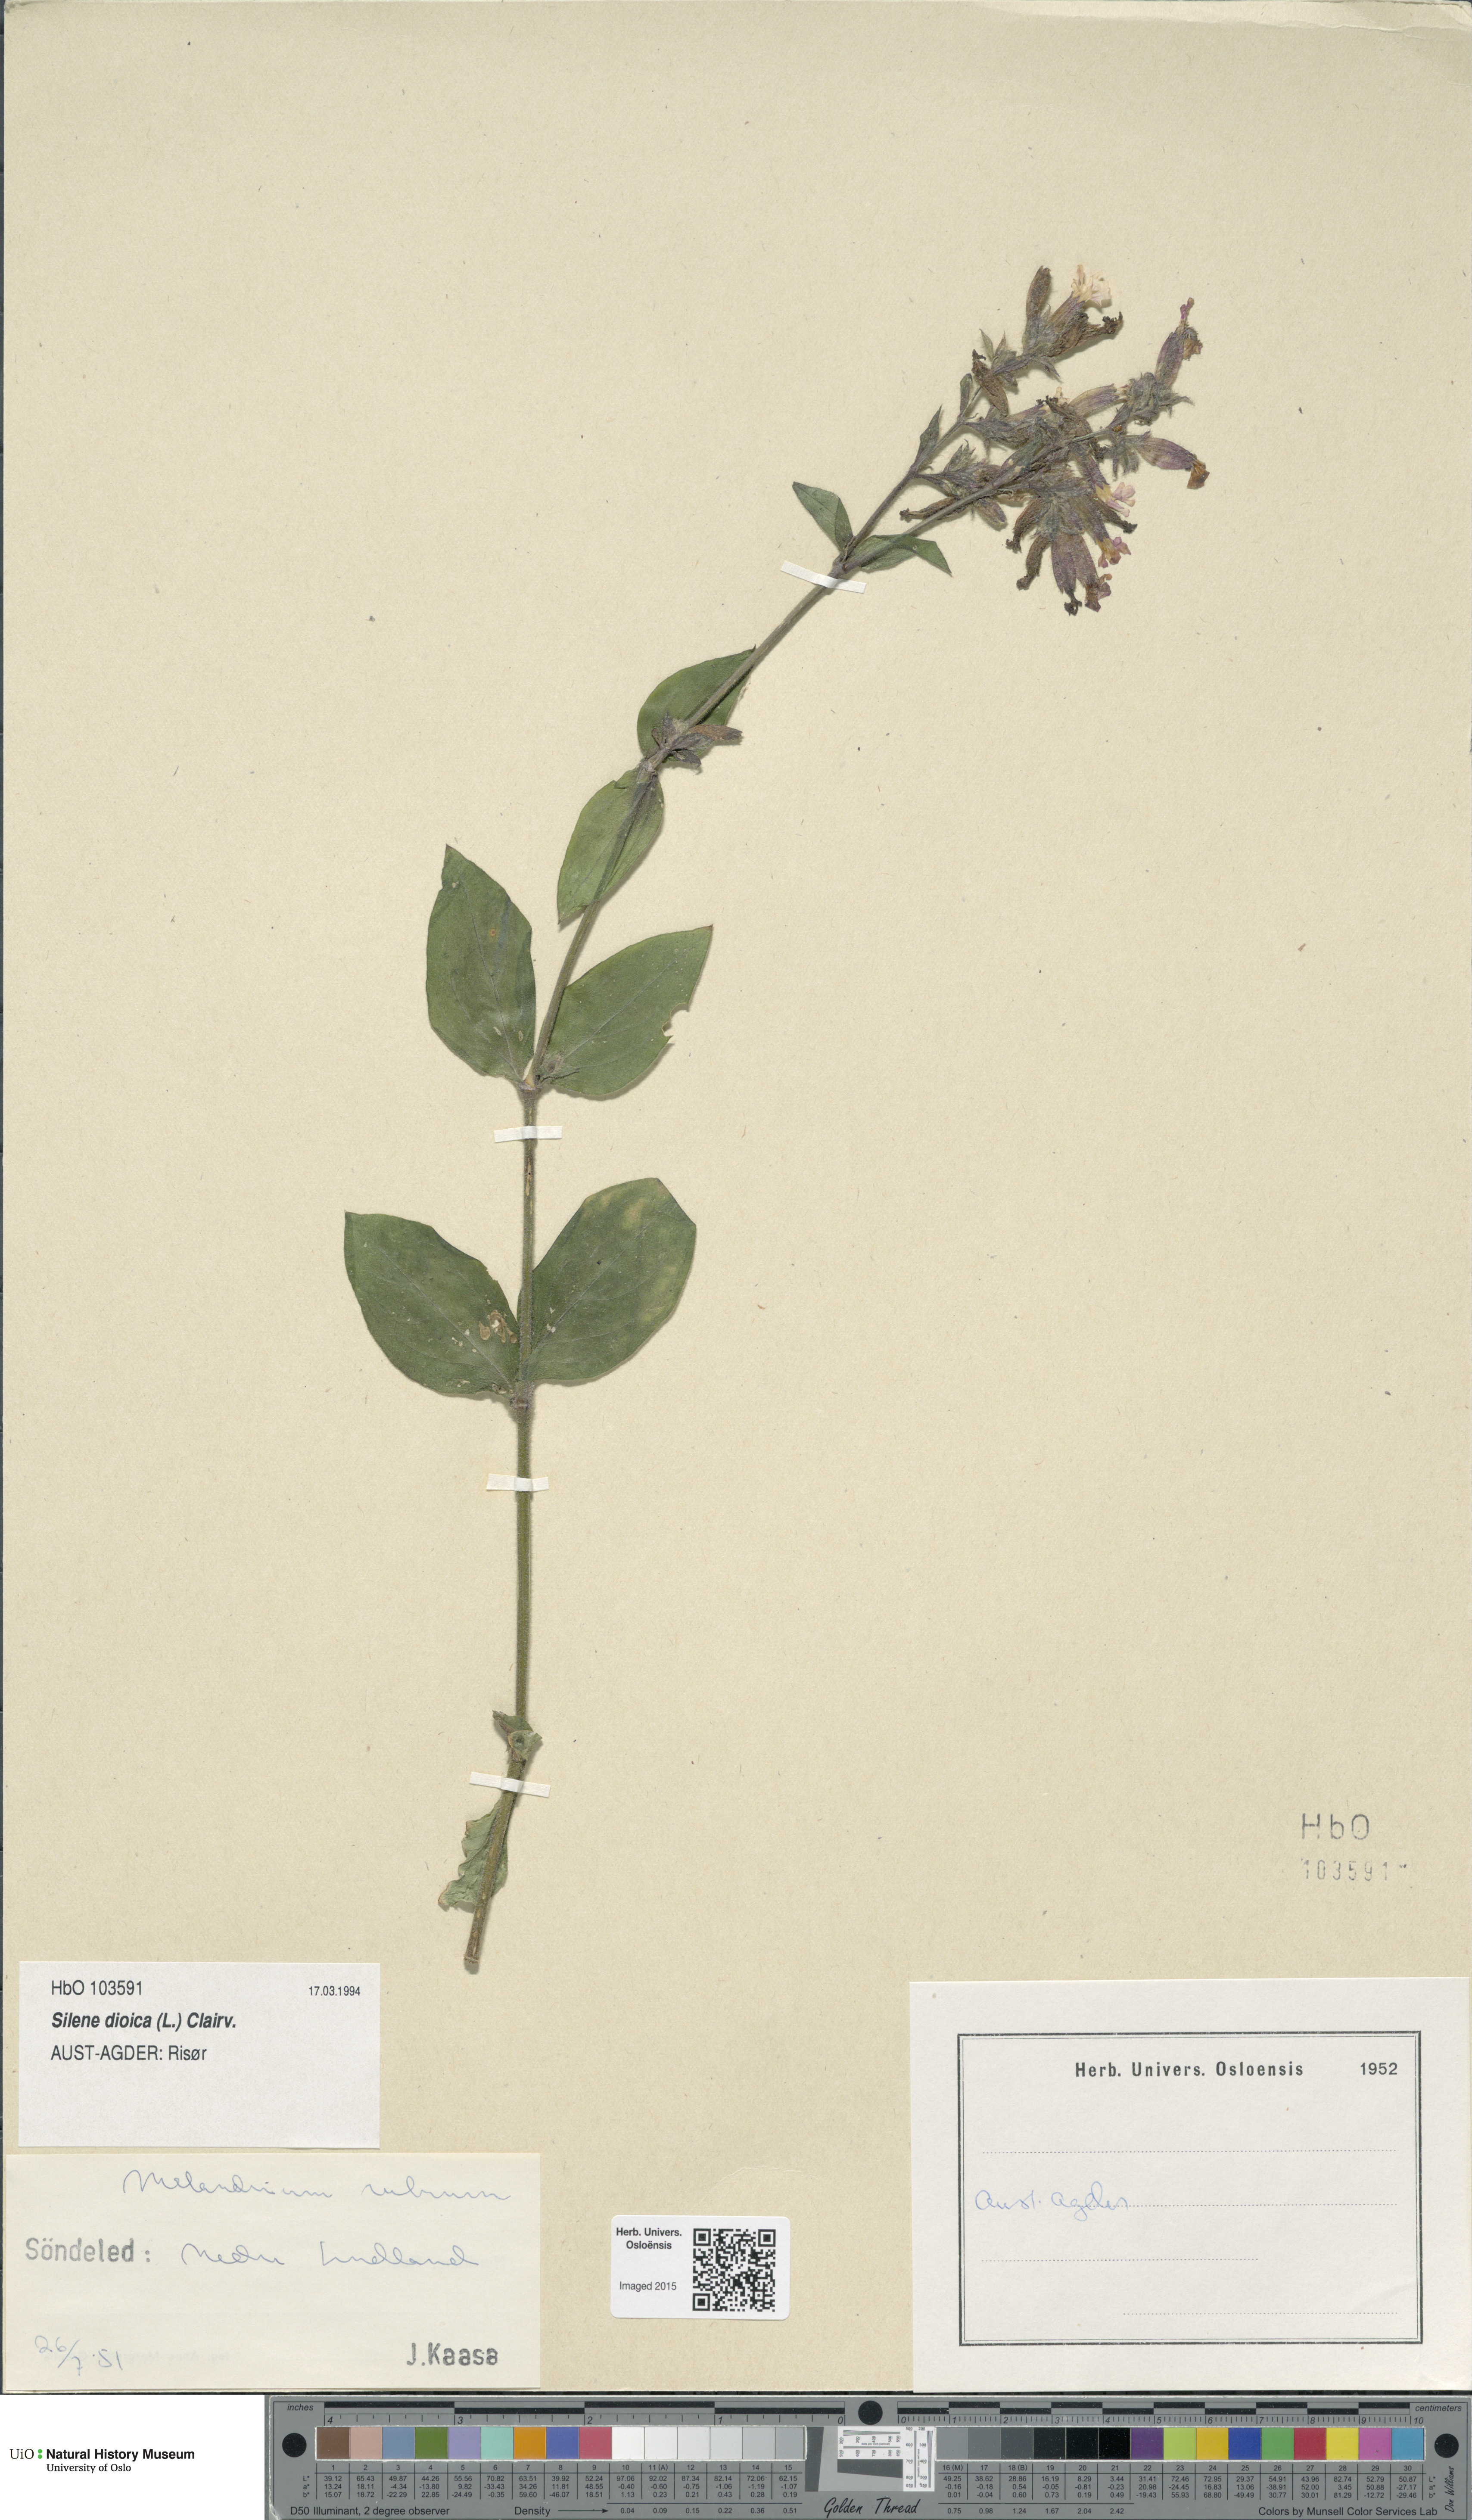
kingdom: Plantae
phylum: Tracheophyta
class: Magnoliopsida
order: Caryophyllales
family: Caryophyllaceae
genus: Silene
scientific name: Silene dioica
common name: Red campion
